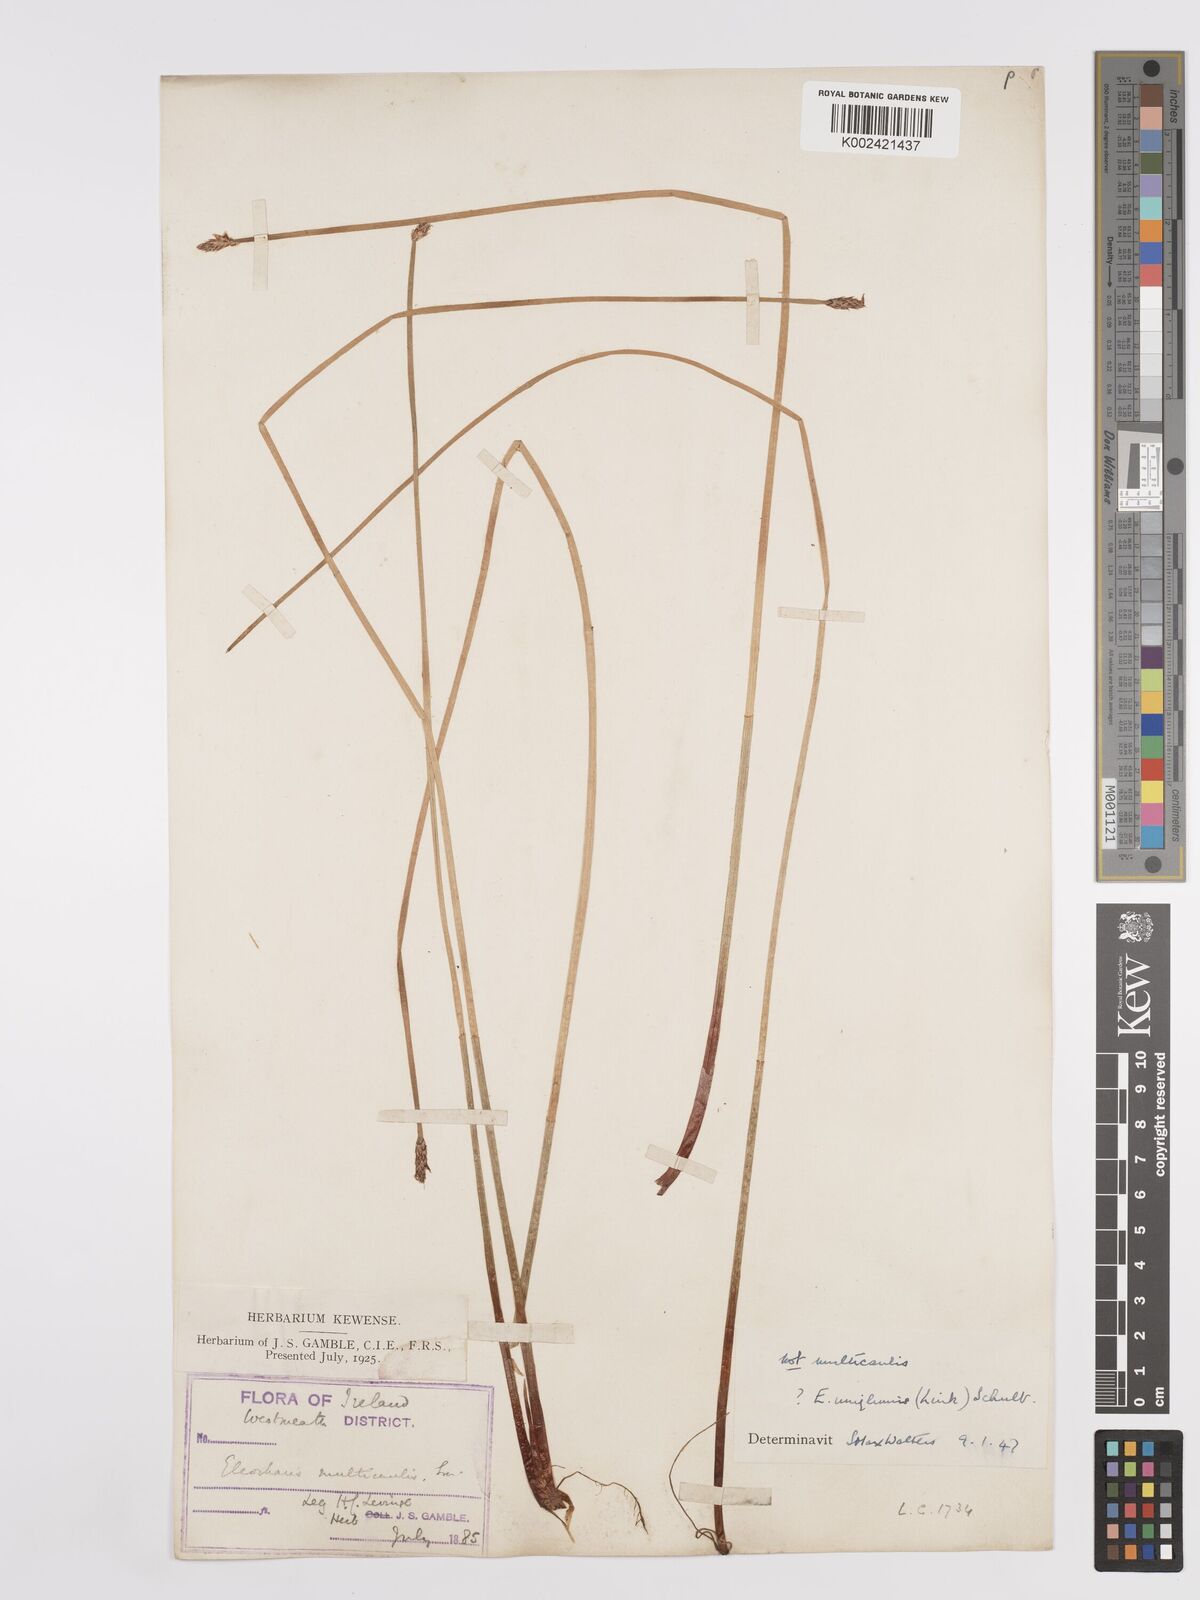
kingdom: Plantae
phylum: Tracheophyta
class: Liliopsida
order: Poales
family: Cyperaceae
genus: Eleocharis
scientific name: Eleocharis uniglumis
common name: Slender spike-rush
